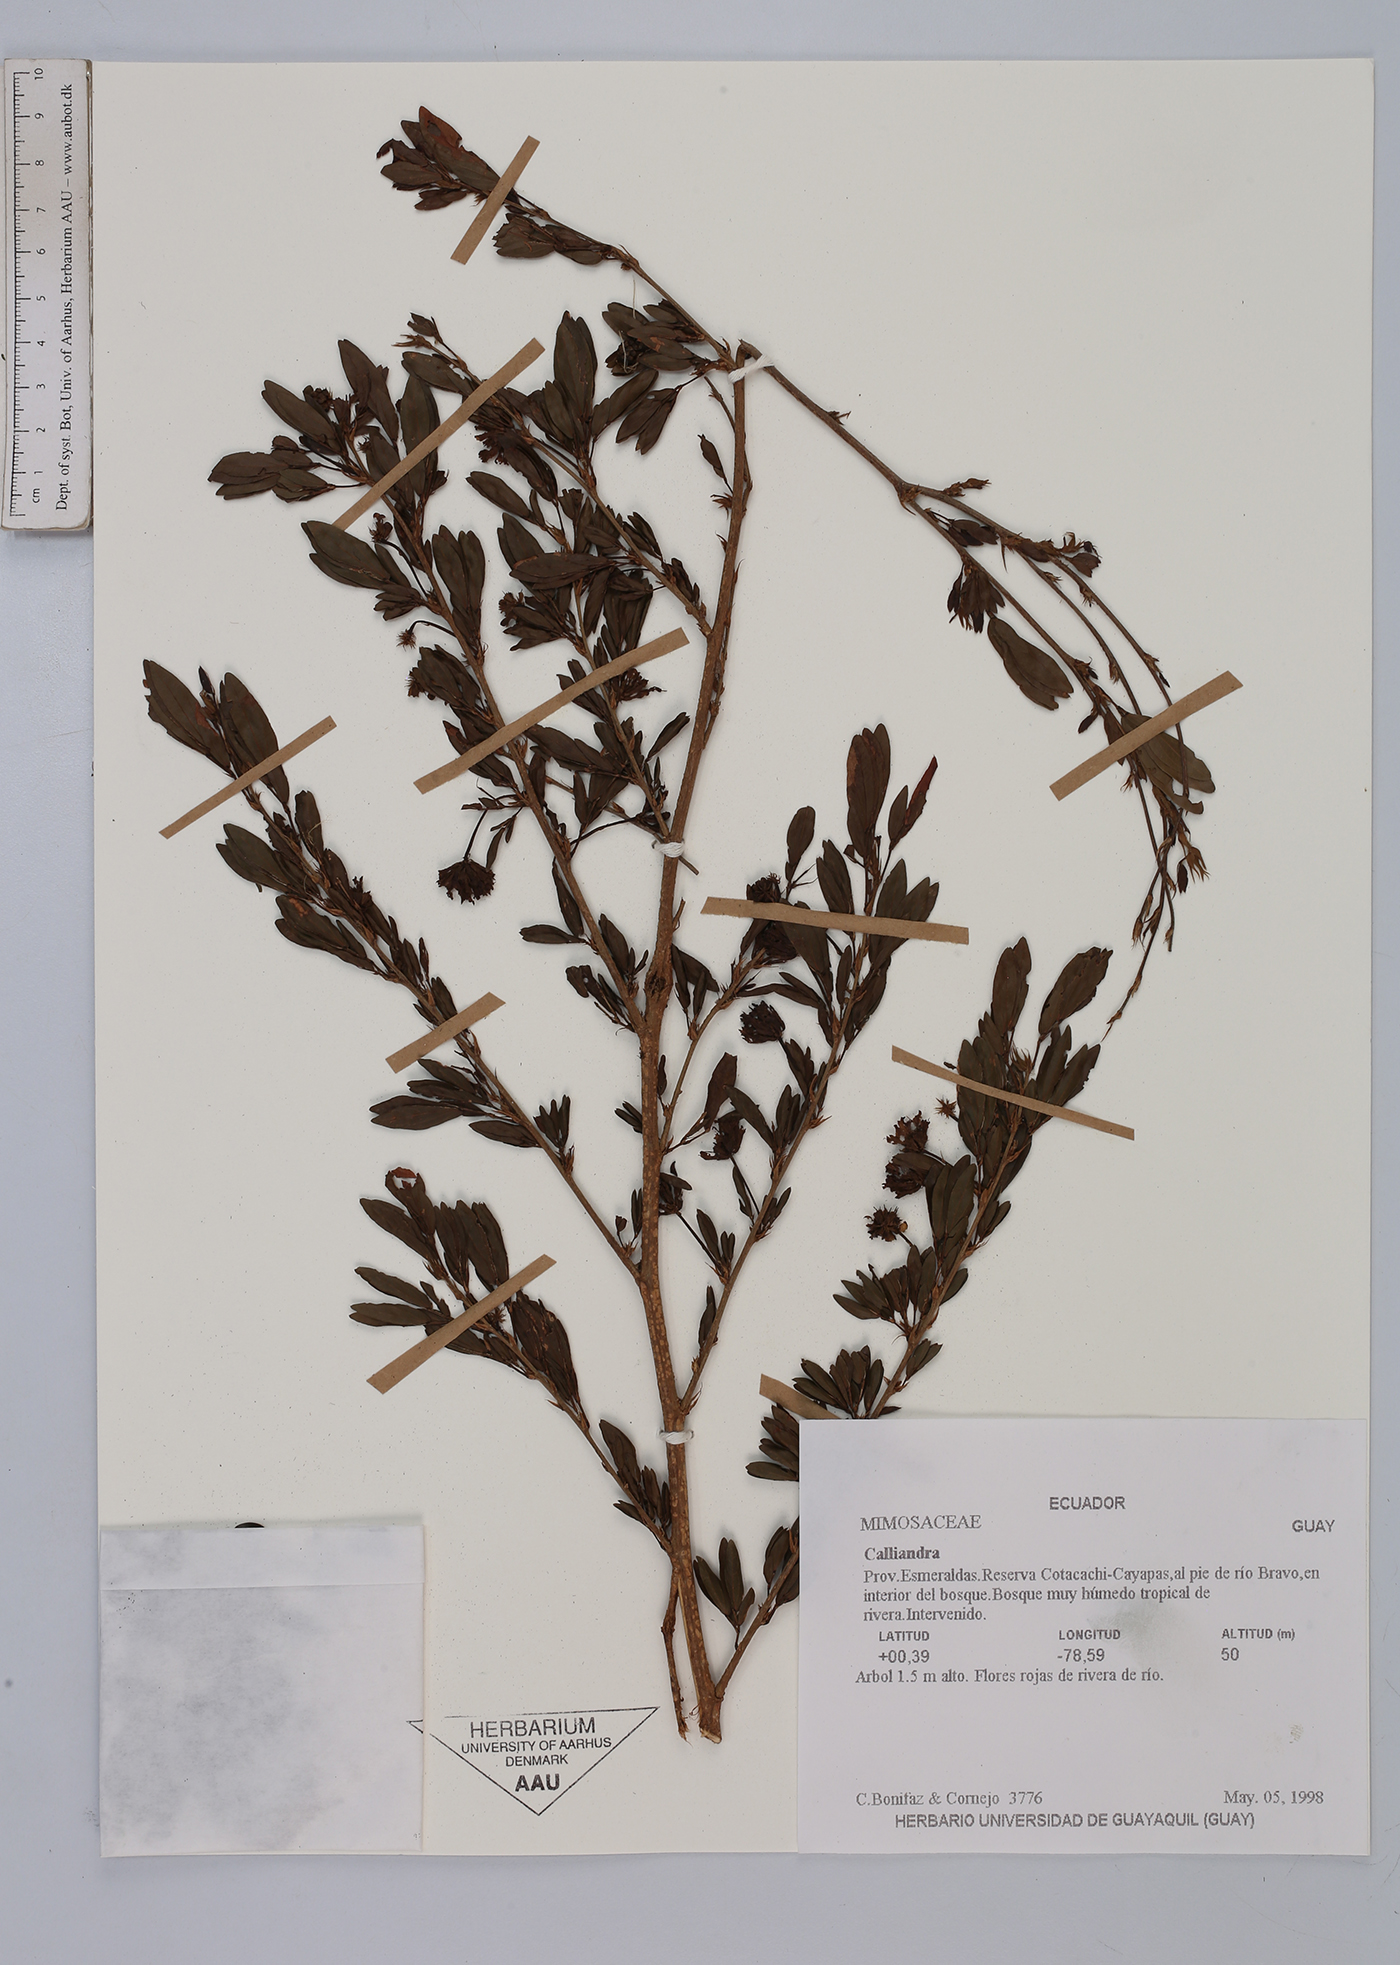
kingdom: Plantae
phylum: Tracheophyta
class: Magnoliopsida
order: Fabales
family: Fabaceae
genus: Calliandra
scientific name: Calliandra
